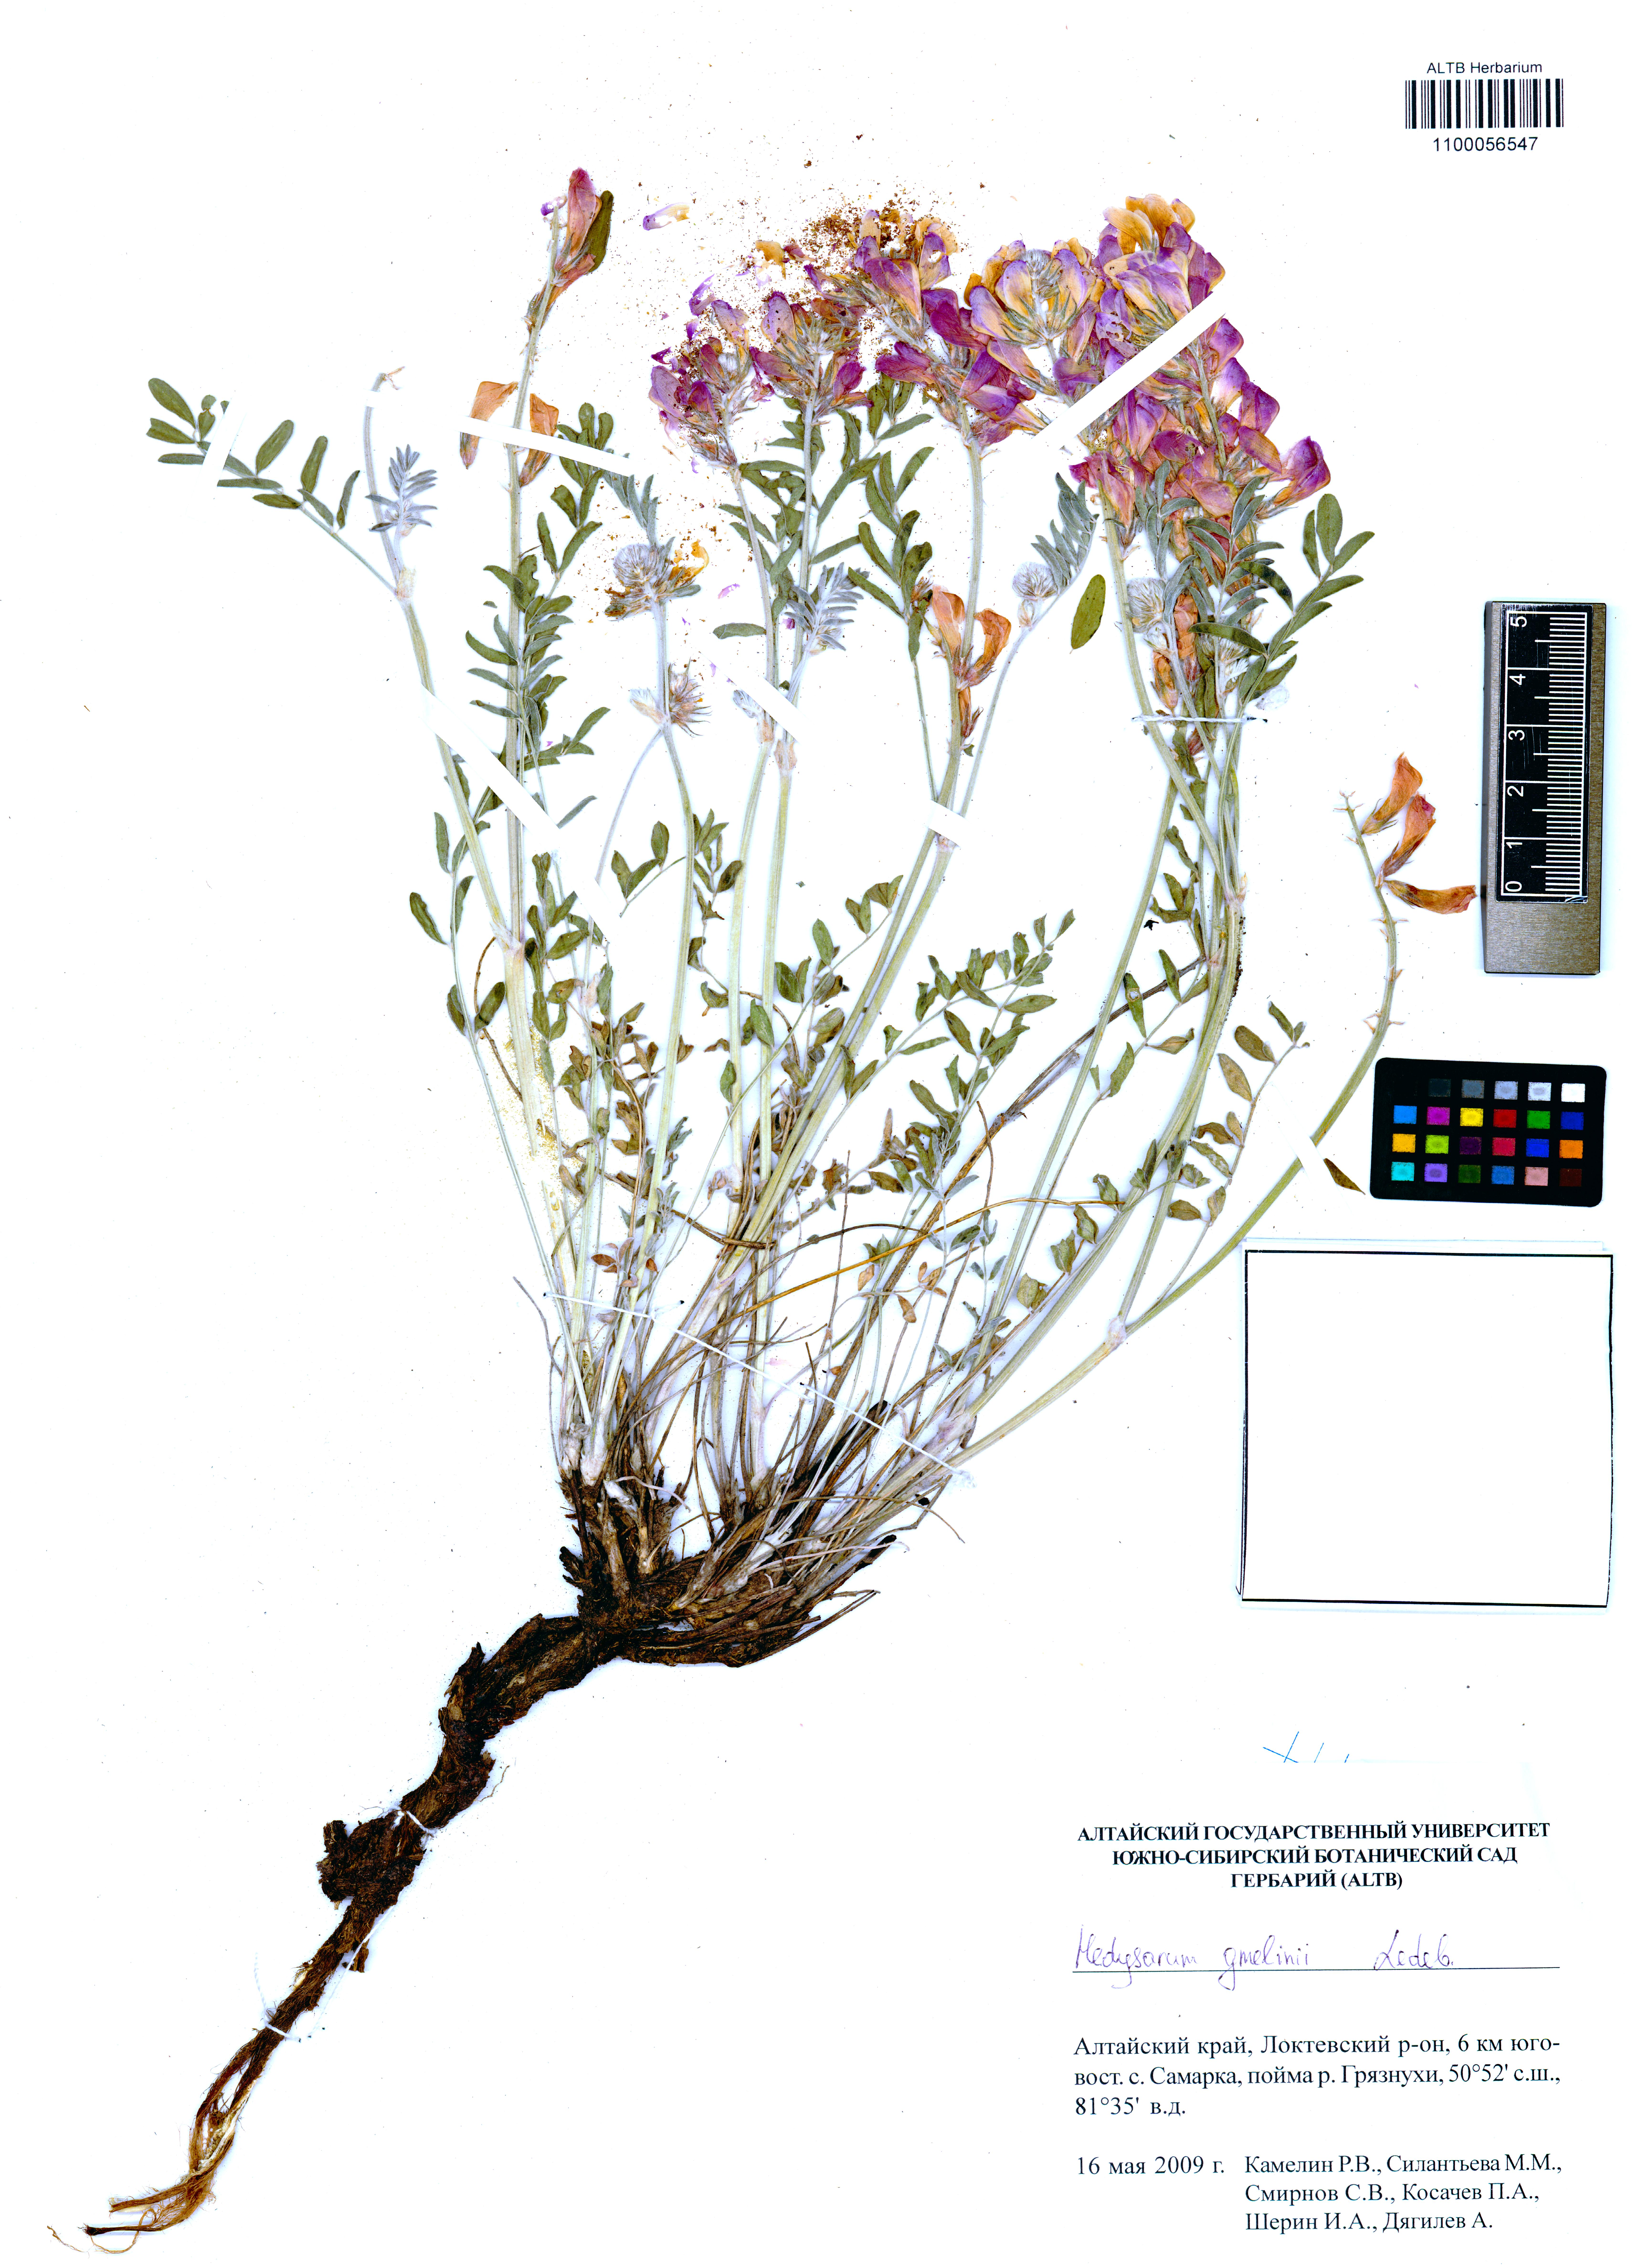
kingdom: Plantae
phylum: Tracheophyta
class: Magnoliopsida
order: Fabales
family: Fabaceae
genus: Hedysarum
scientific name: Hedysarum gmelinii
